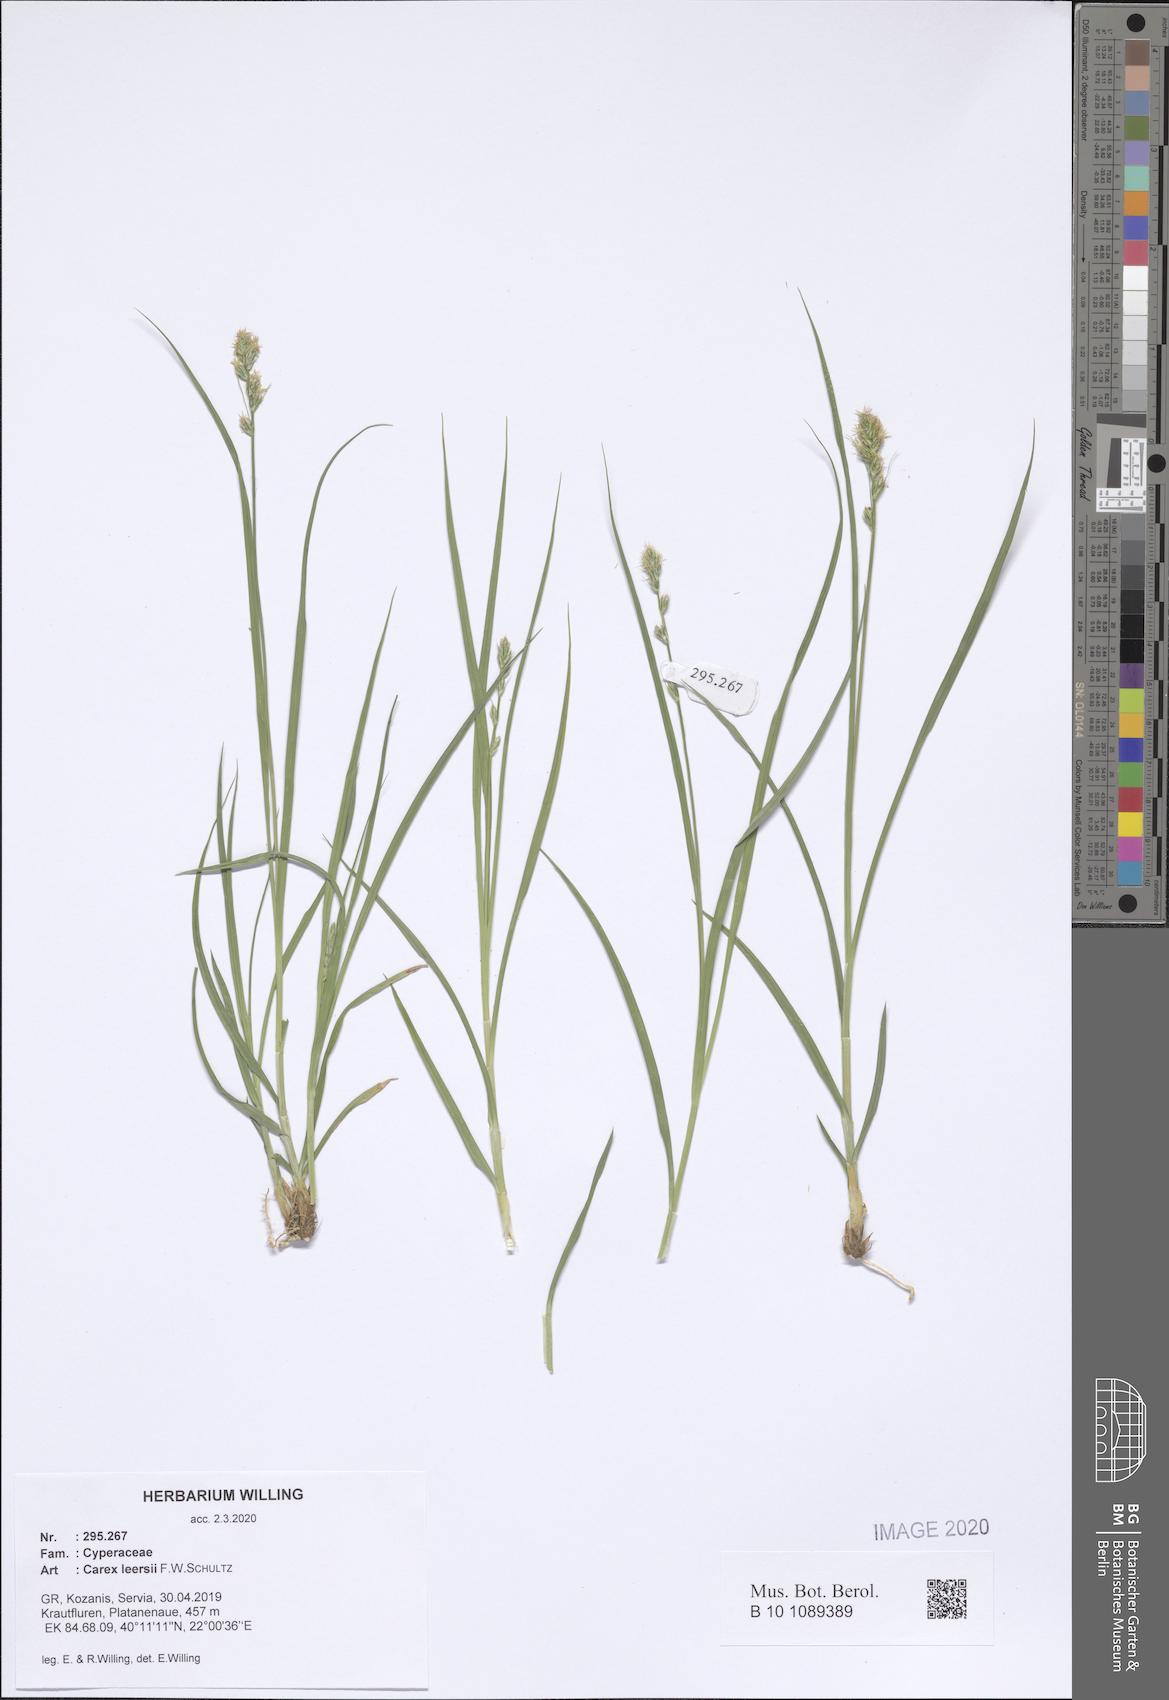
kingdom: Plantae
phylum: Tracheophyta
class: Liliopsida
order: Poales
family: Cyperaceae
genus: Carex
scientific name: Carex leersii
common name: Leers' sedge
